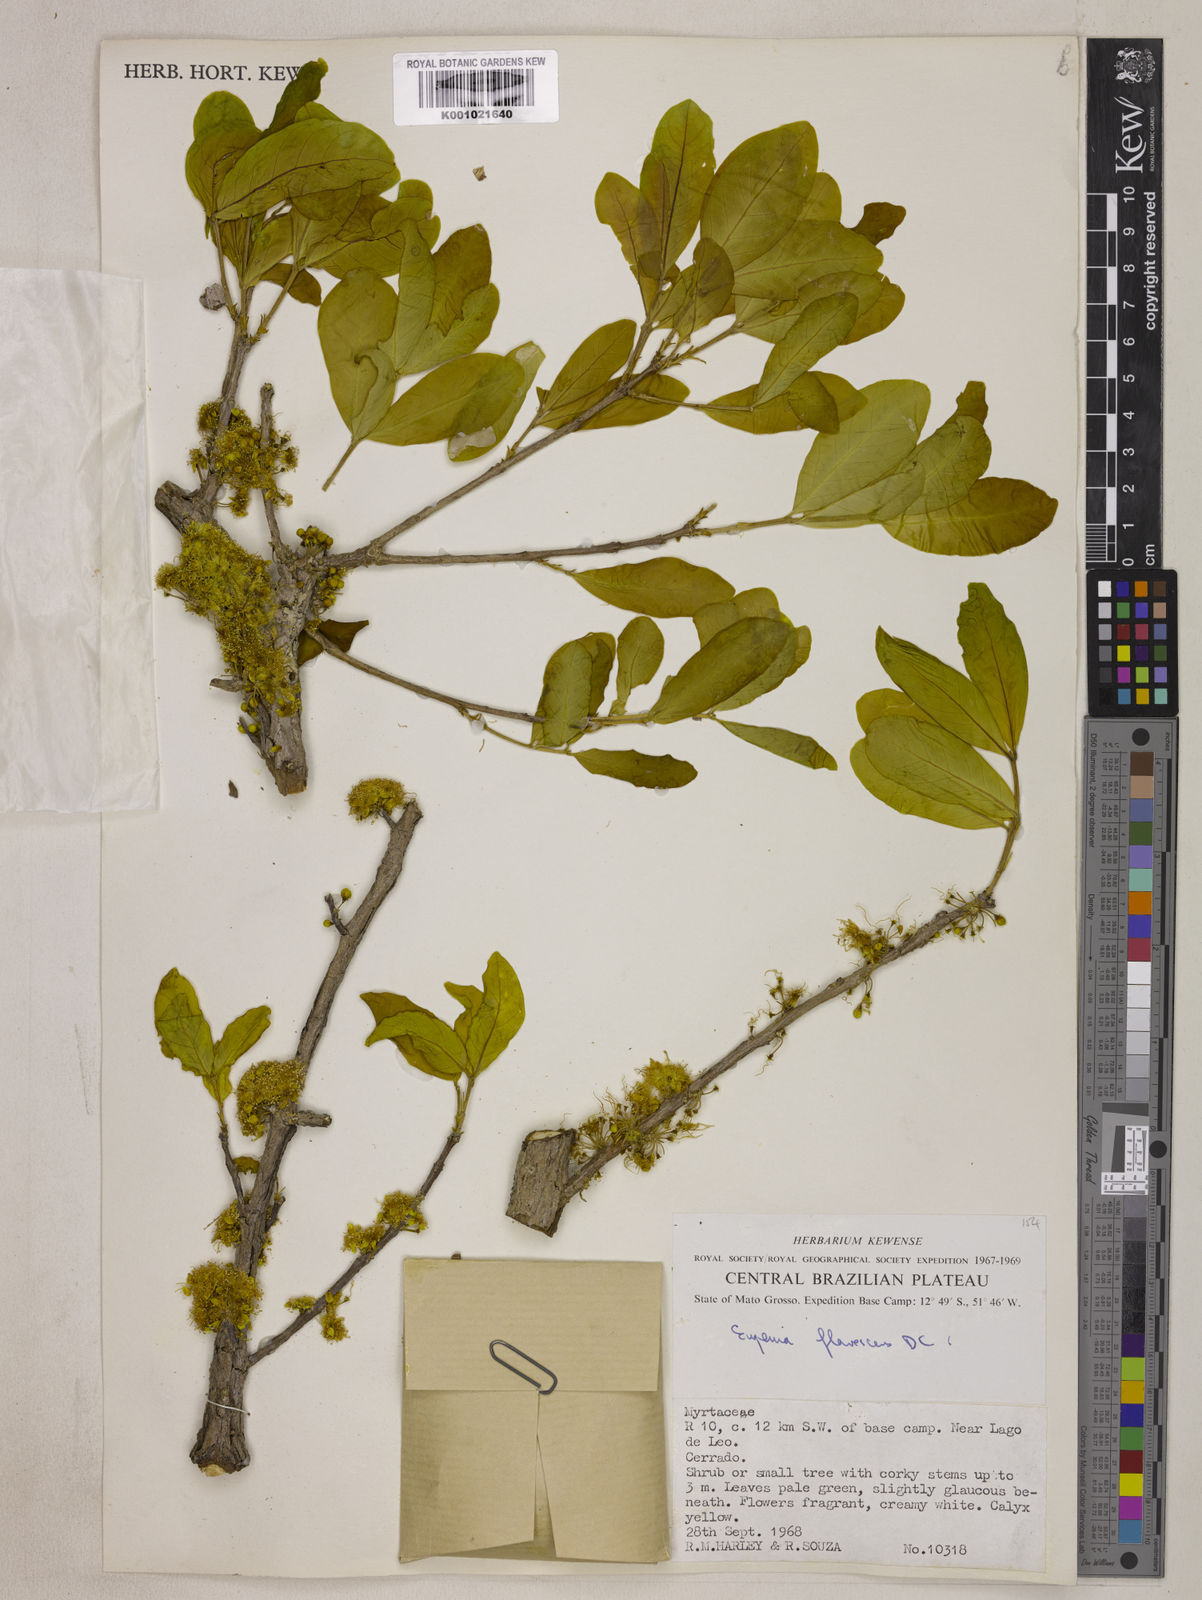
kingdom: Plantae
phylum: Tracheophyta
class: Magnoliopsida
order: Myrtales
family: Myrtaceae
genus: Eugenia
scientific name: Eugenia flavescens
